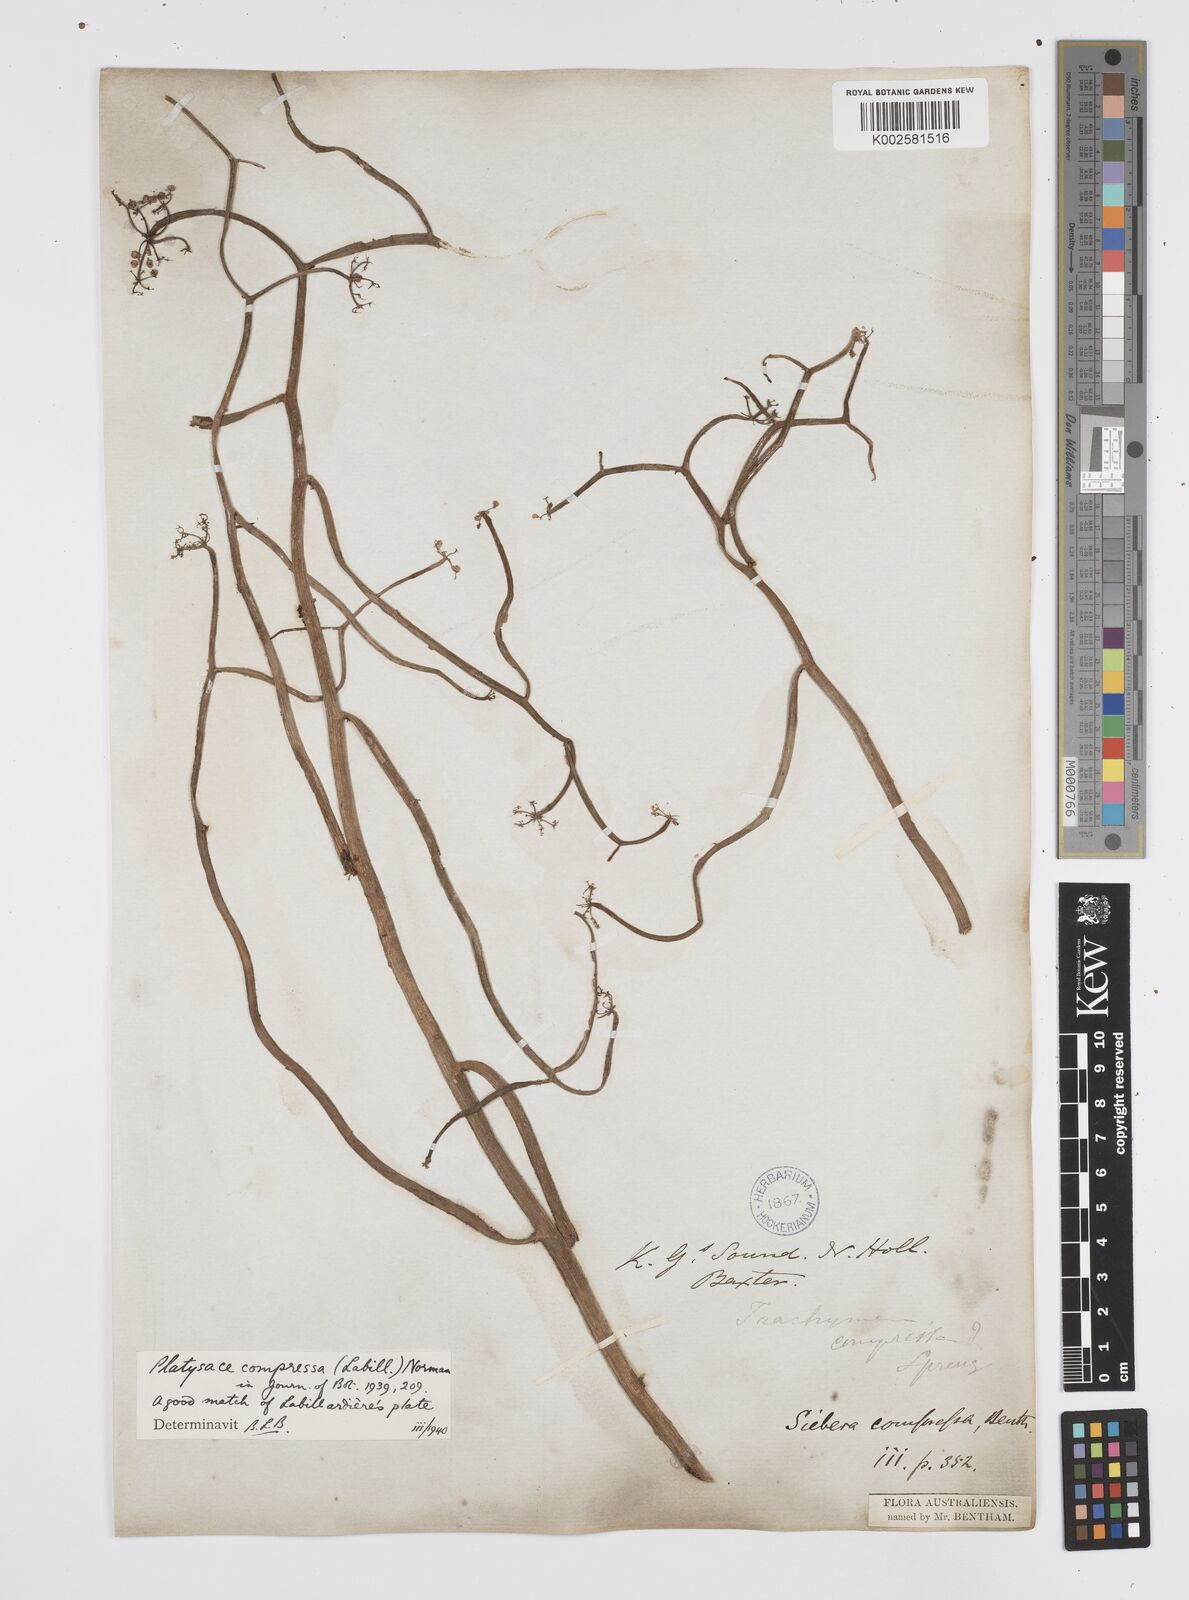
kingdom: Plantae
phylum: Tracheophyta
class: Magnoliopsida
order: Apiales
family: Apiaceae
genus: Centella
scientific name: Centella
